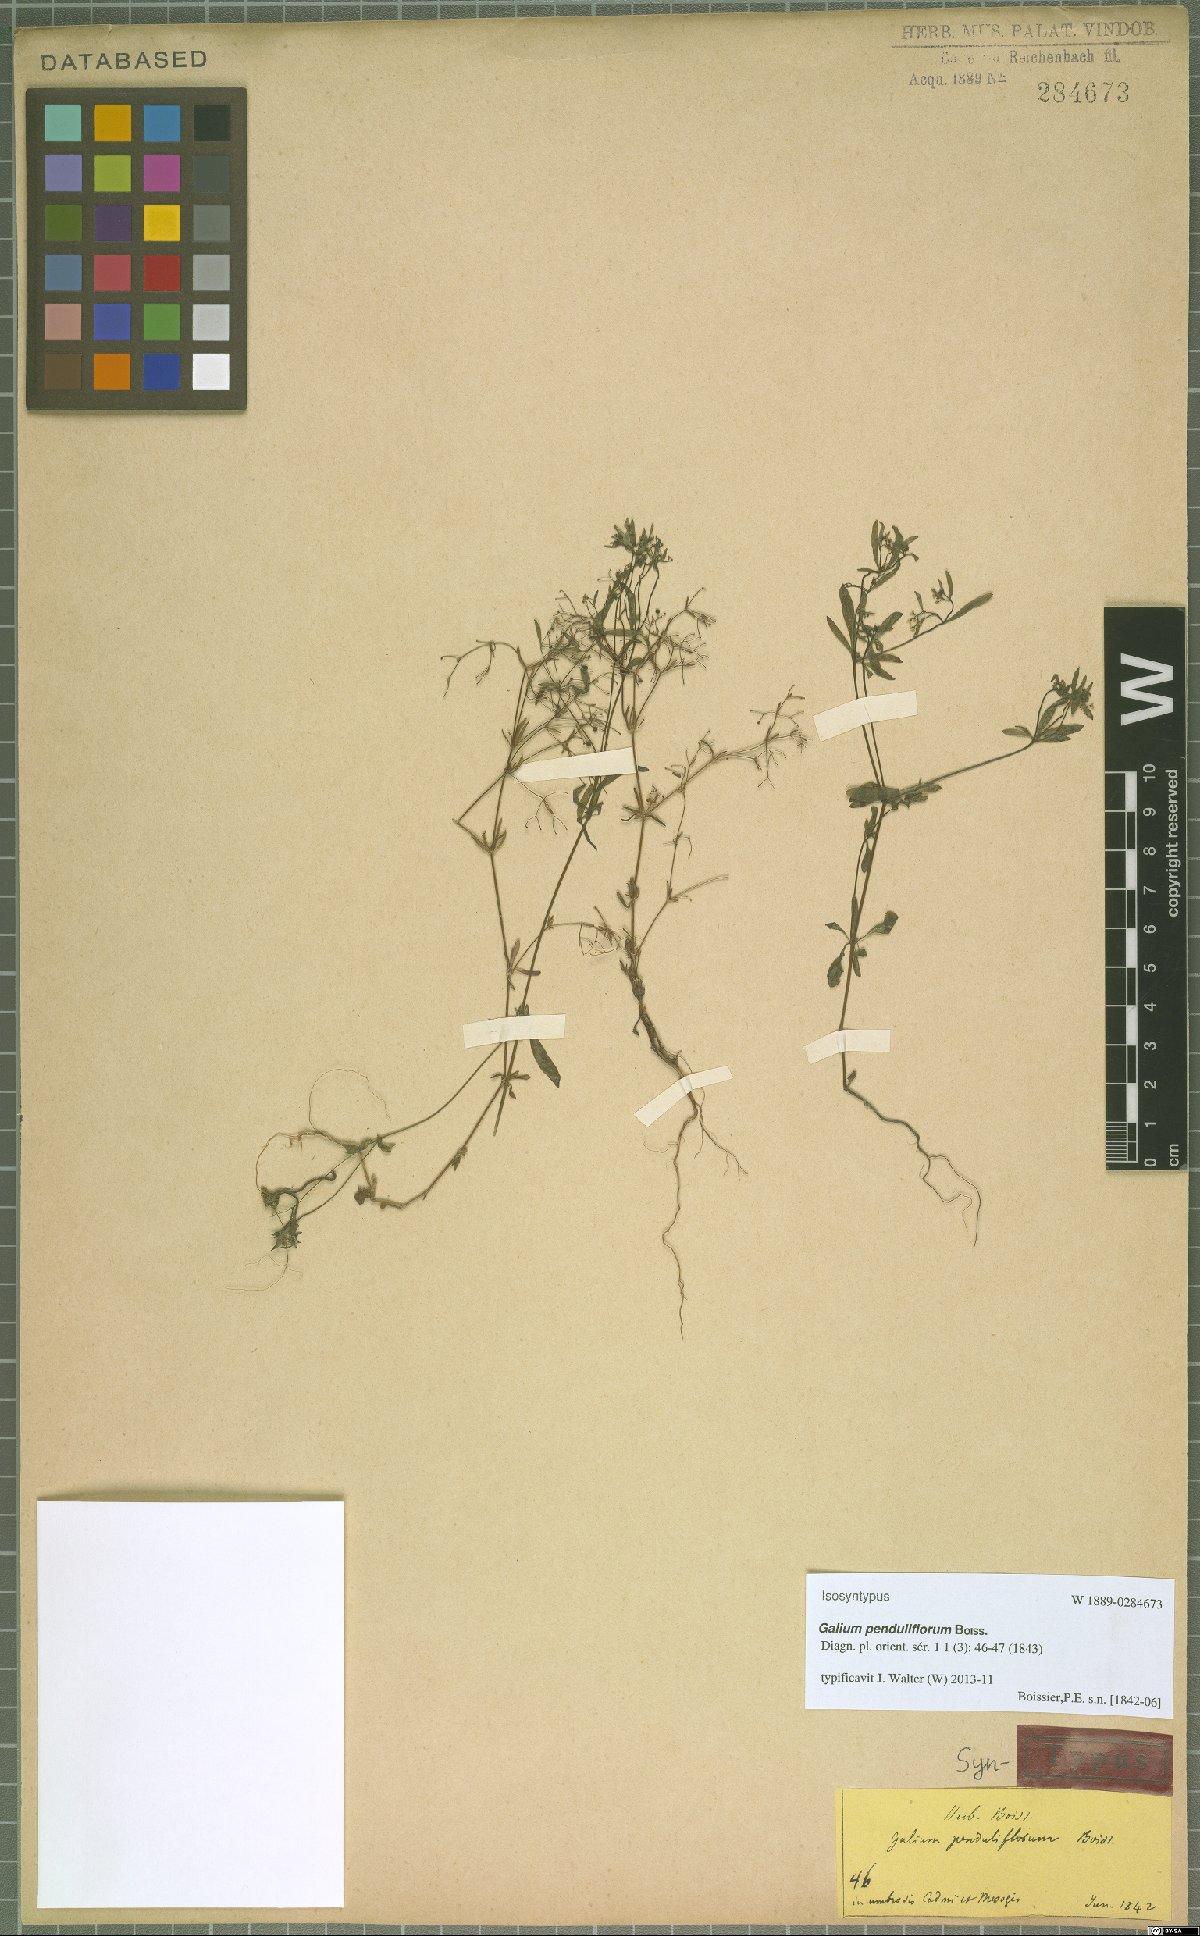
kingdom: Plantae
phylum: Tracheophyta
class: Magnoliopsida
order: Gentianales
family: Rubiaceae
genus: Galium
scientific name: Galium penduliflorum
